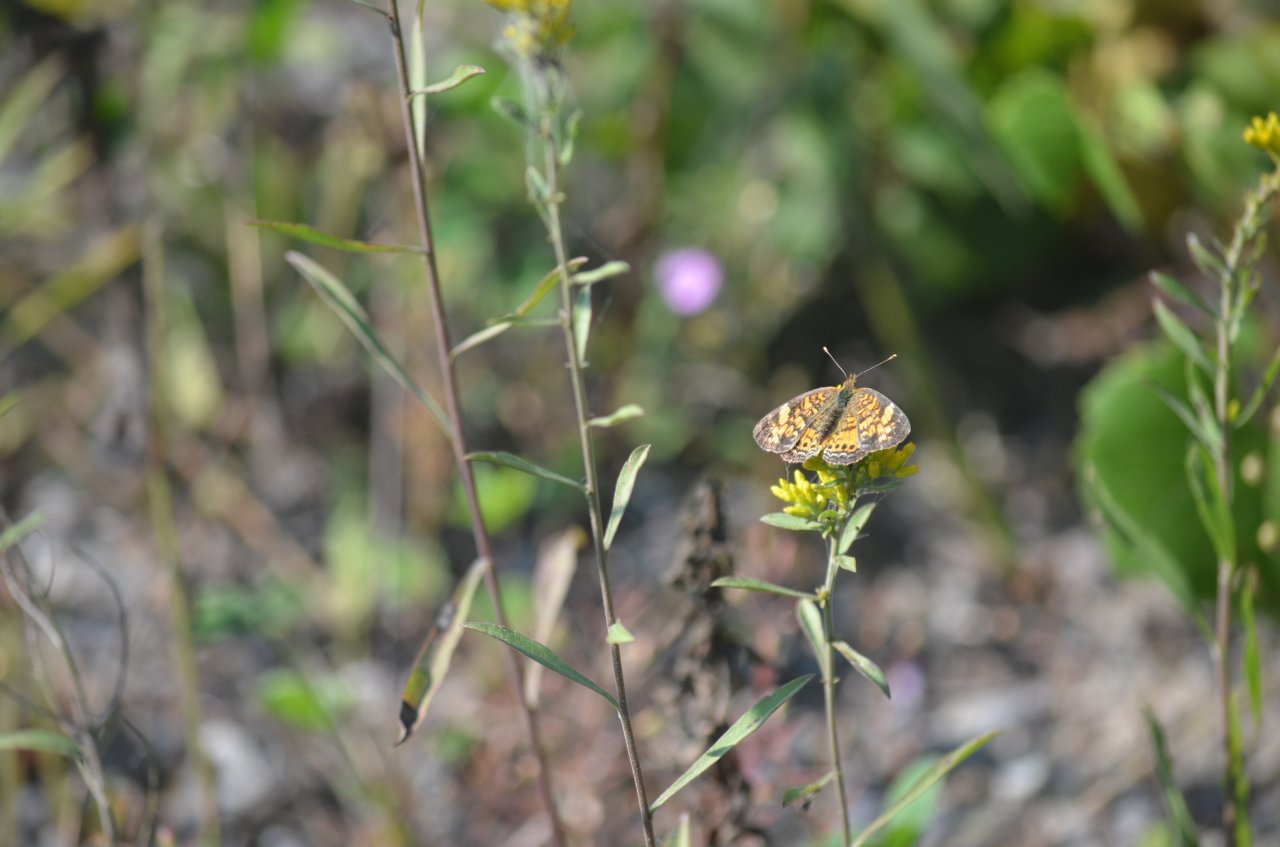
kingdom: Animalia
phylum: Arthropoda
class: Insecta
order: Lepidoptera
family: Nymphalidae
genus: Phyciodes
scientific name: Phyciodes tharos
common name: Northern Crescent
